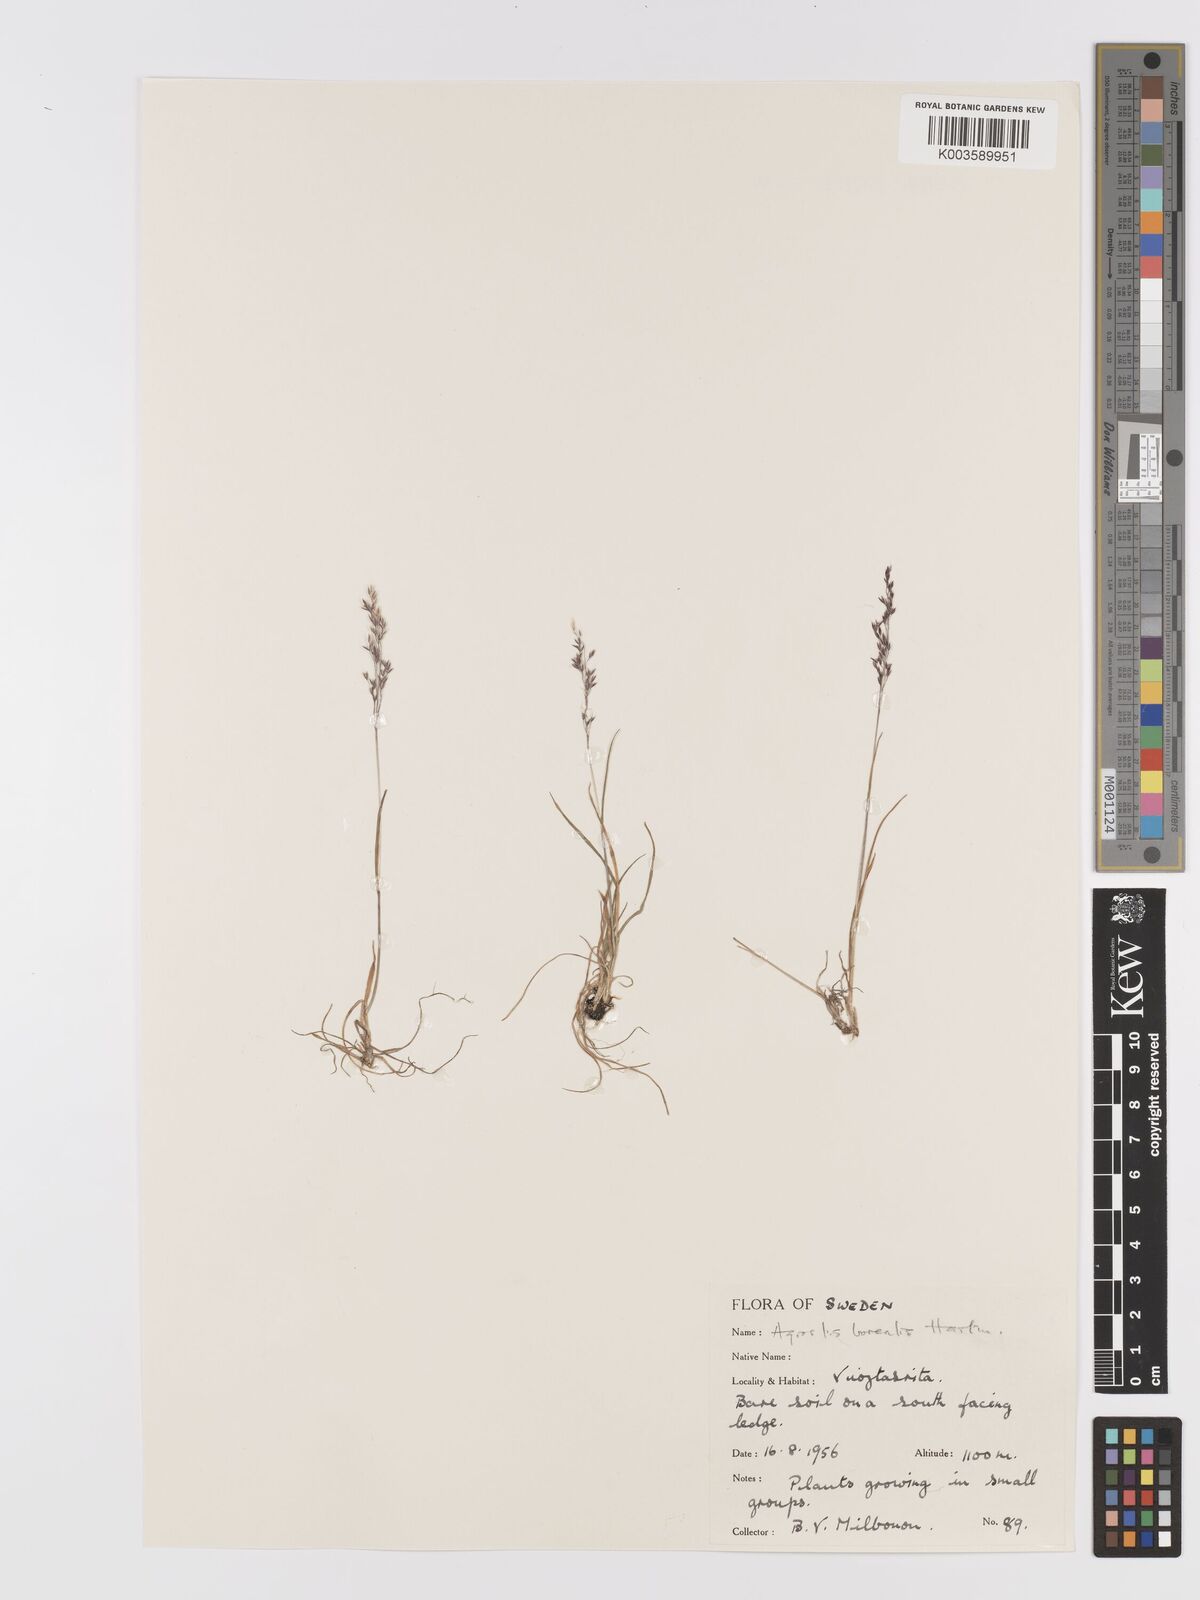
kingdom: Plantae
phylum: Tracheophyta
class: Liliopsida
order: Poales
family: Poaceae
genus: Agrostis
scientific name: Agrostis mertensii
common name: Northern bent
